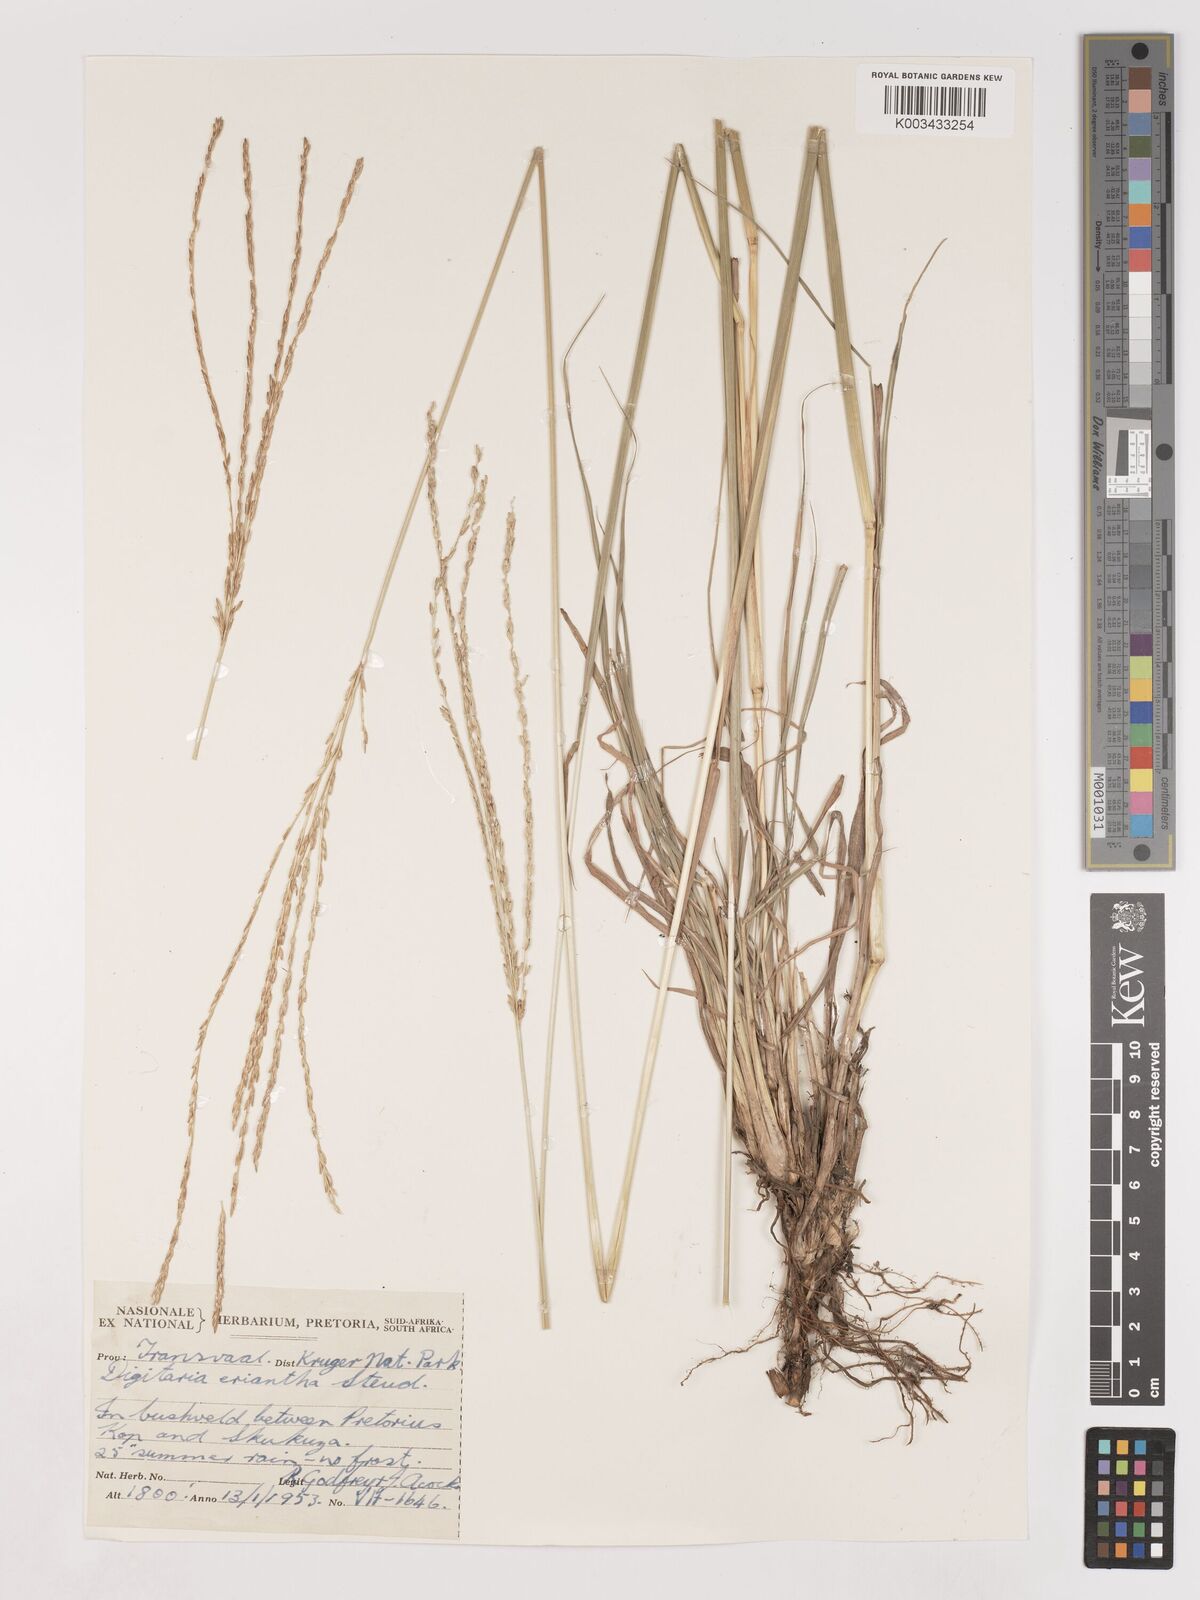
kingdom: Plantae
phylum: Tracheophyta
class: Liliopsida
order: Poales
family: Poaceae
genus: Digitaria
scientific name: Digitaria eriantha
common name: Digitgrass
